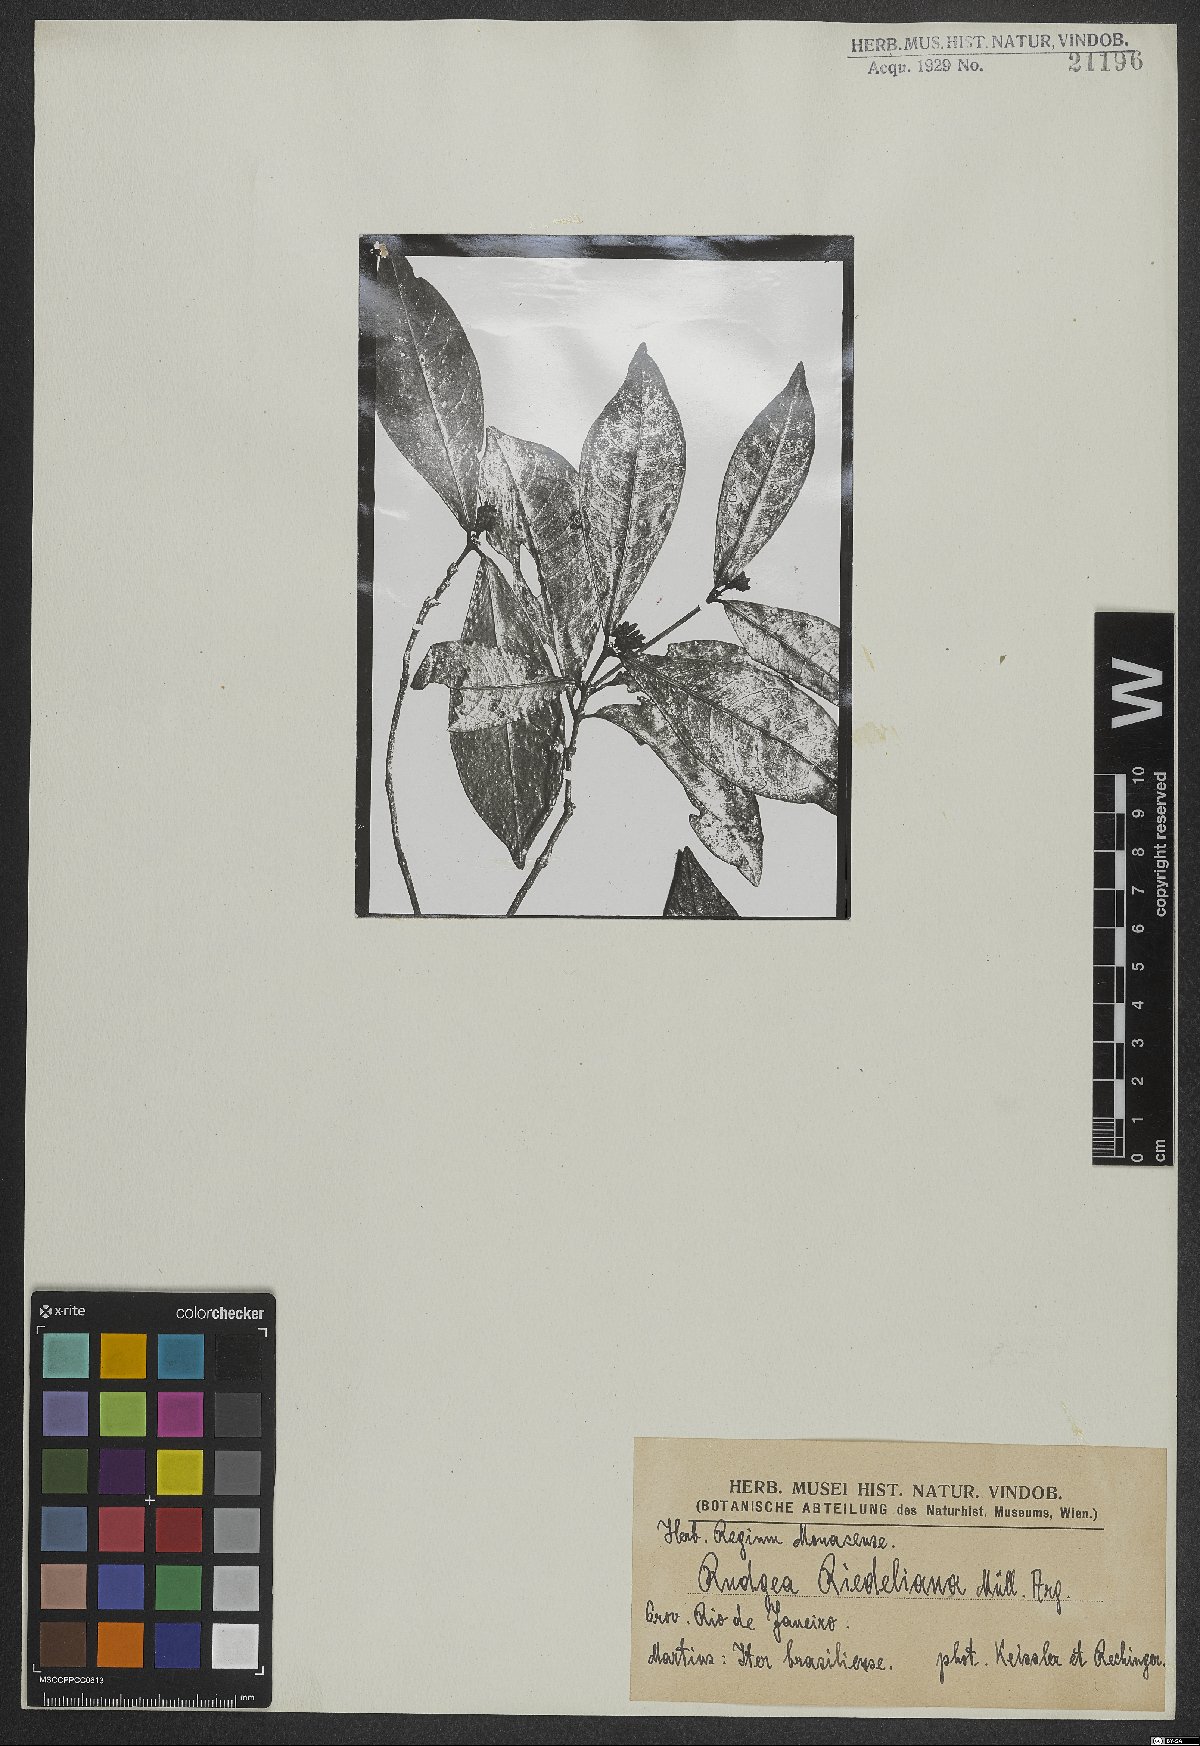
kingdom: Plantae
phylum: Tracheophyta
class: Magnoliopsida
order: Gentianales
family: Rubiaceae
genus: Rudgea
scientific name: Rudgea coronata
